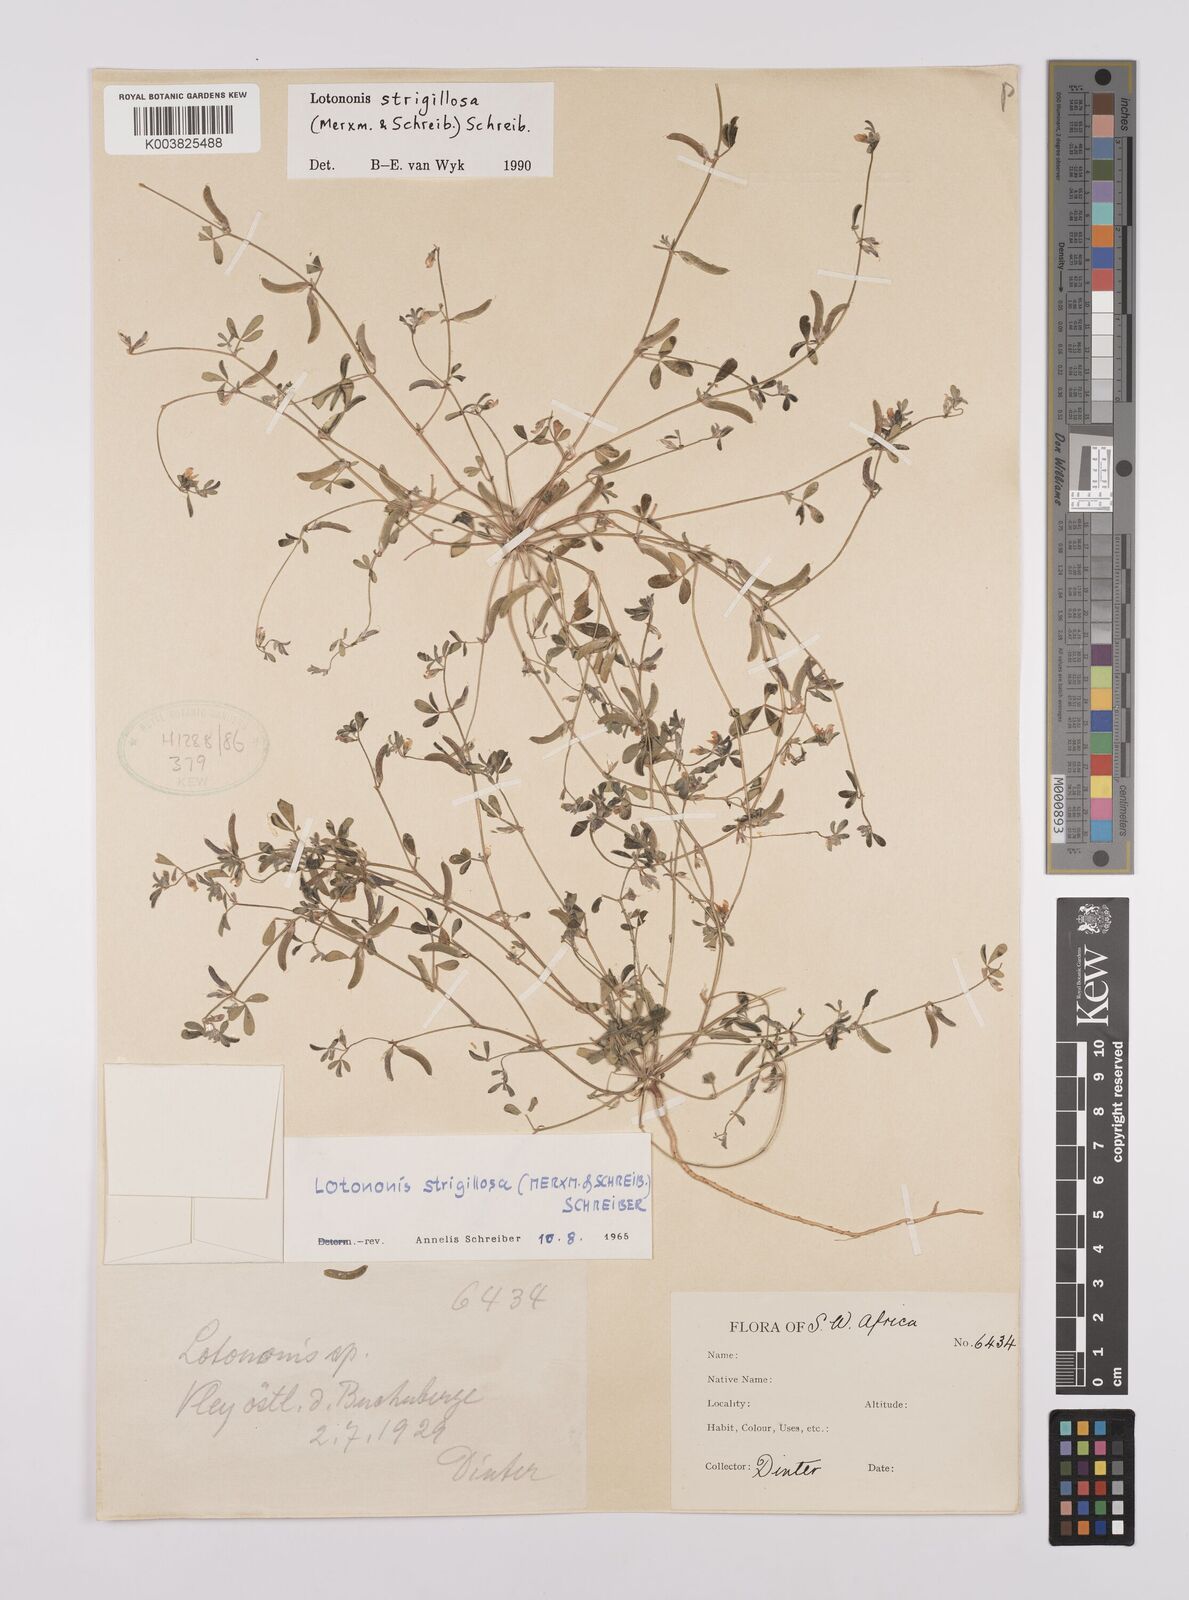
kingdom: Plantae
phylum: Tracheophyta
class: Magnoliopsida
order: Fabales
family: Fabaceae
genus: Lotononis
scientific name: Lotononis strigillosa
